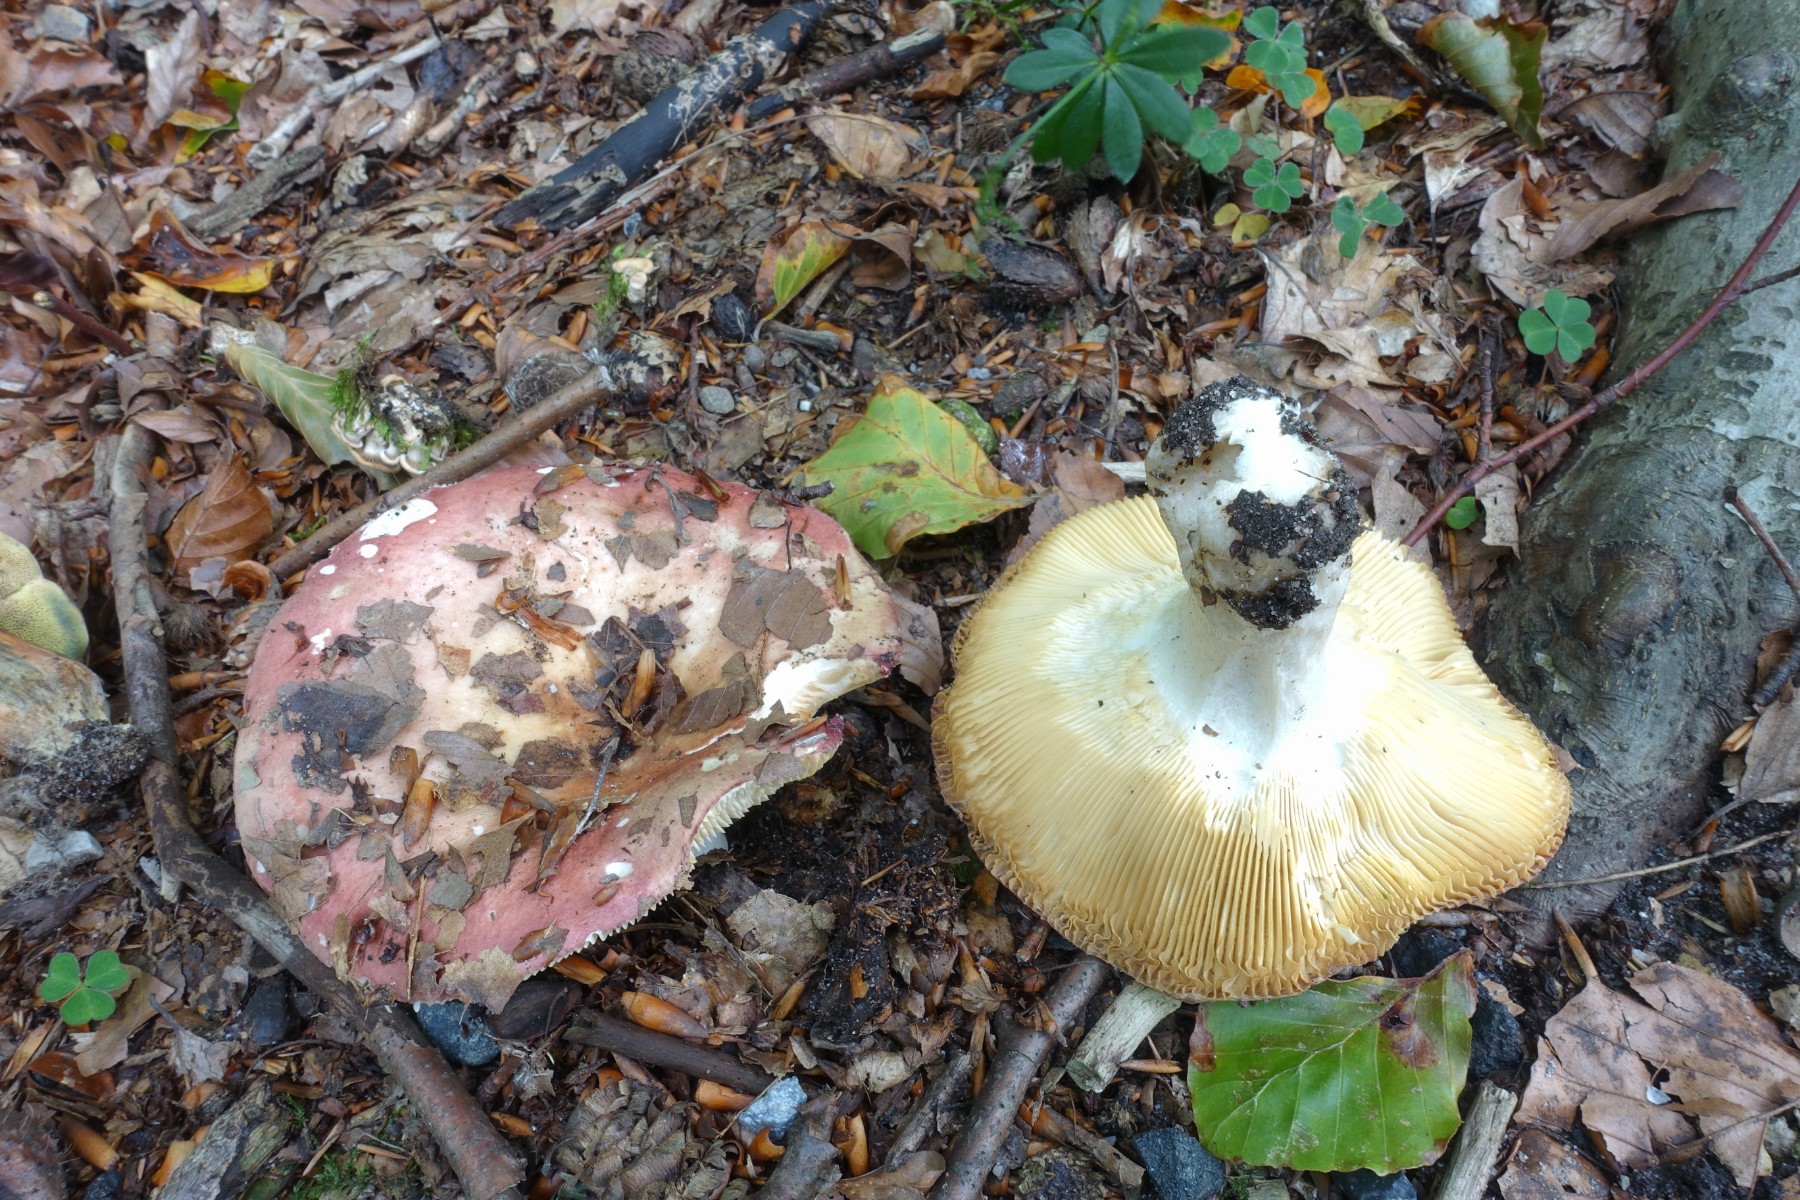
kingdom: Fungi
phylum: Basidiomycota
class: Agaricomycetes
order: Russulales
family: Russulaceae
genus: Russula
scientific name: Russula curtipes
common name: kortstokket skørhat
